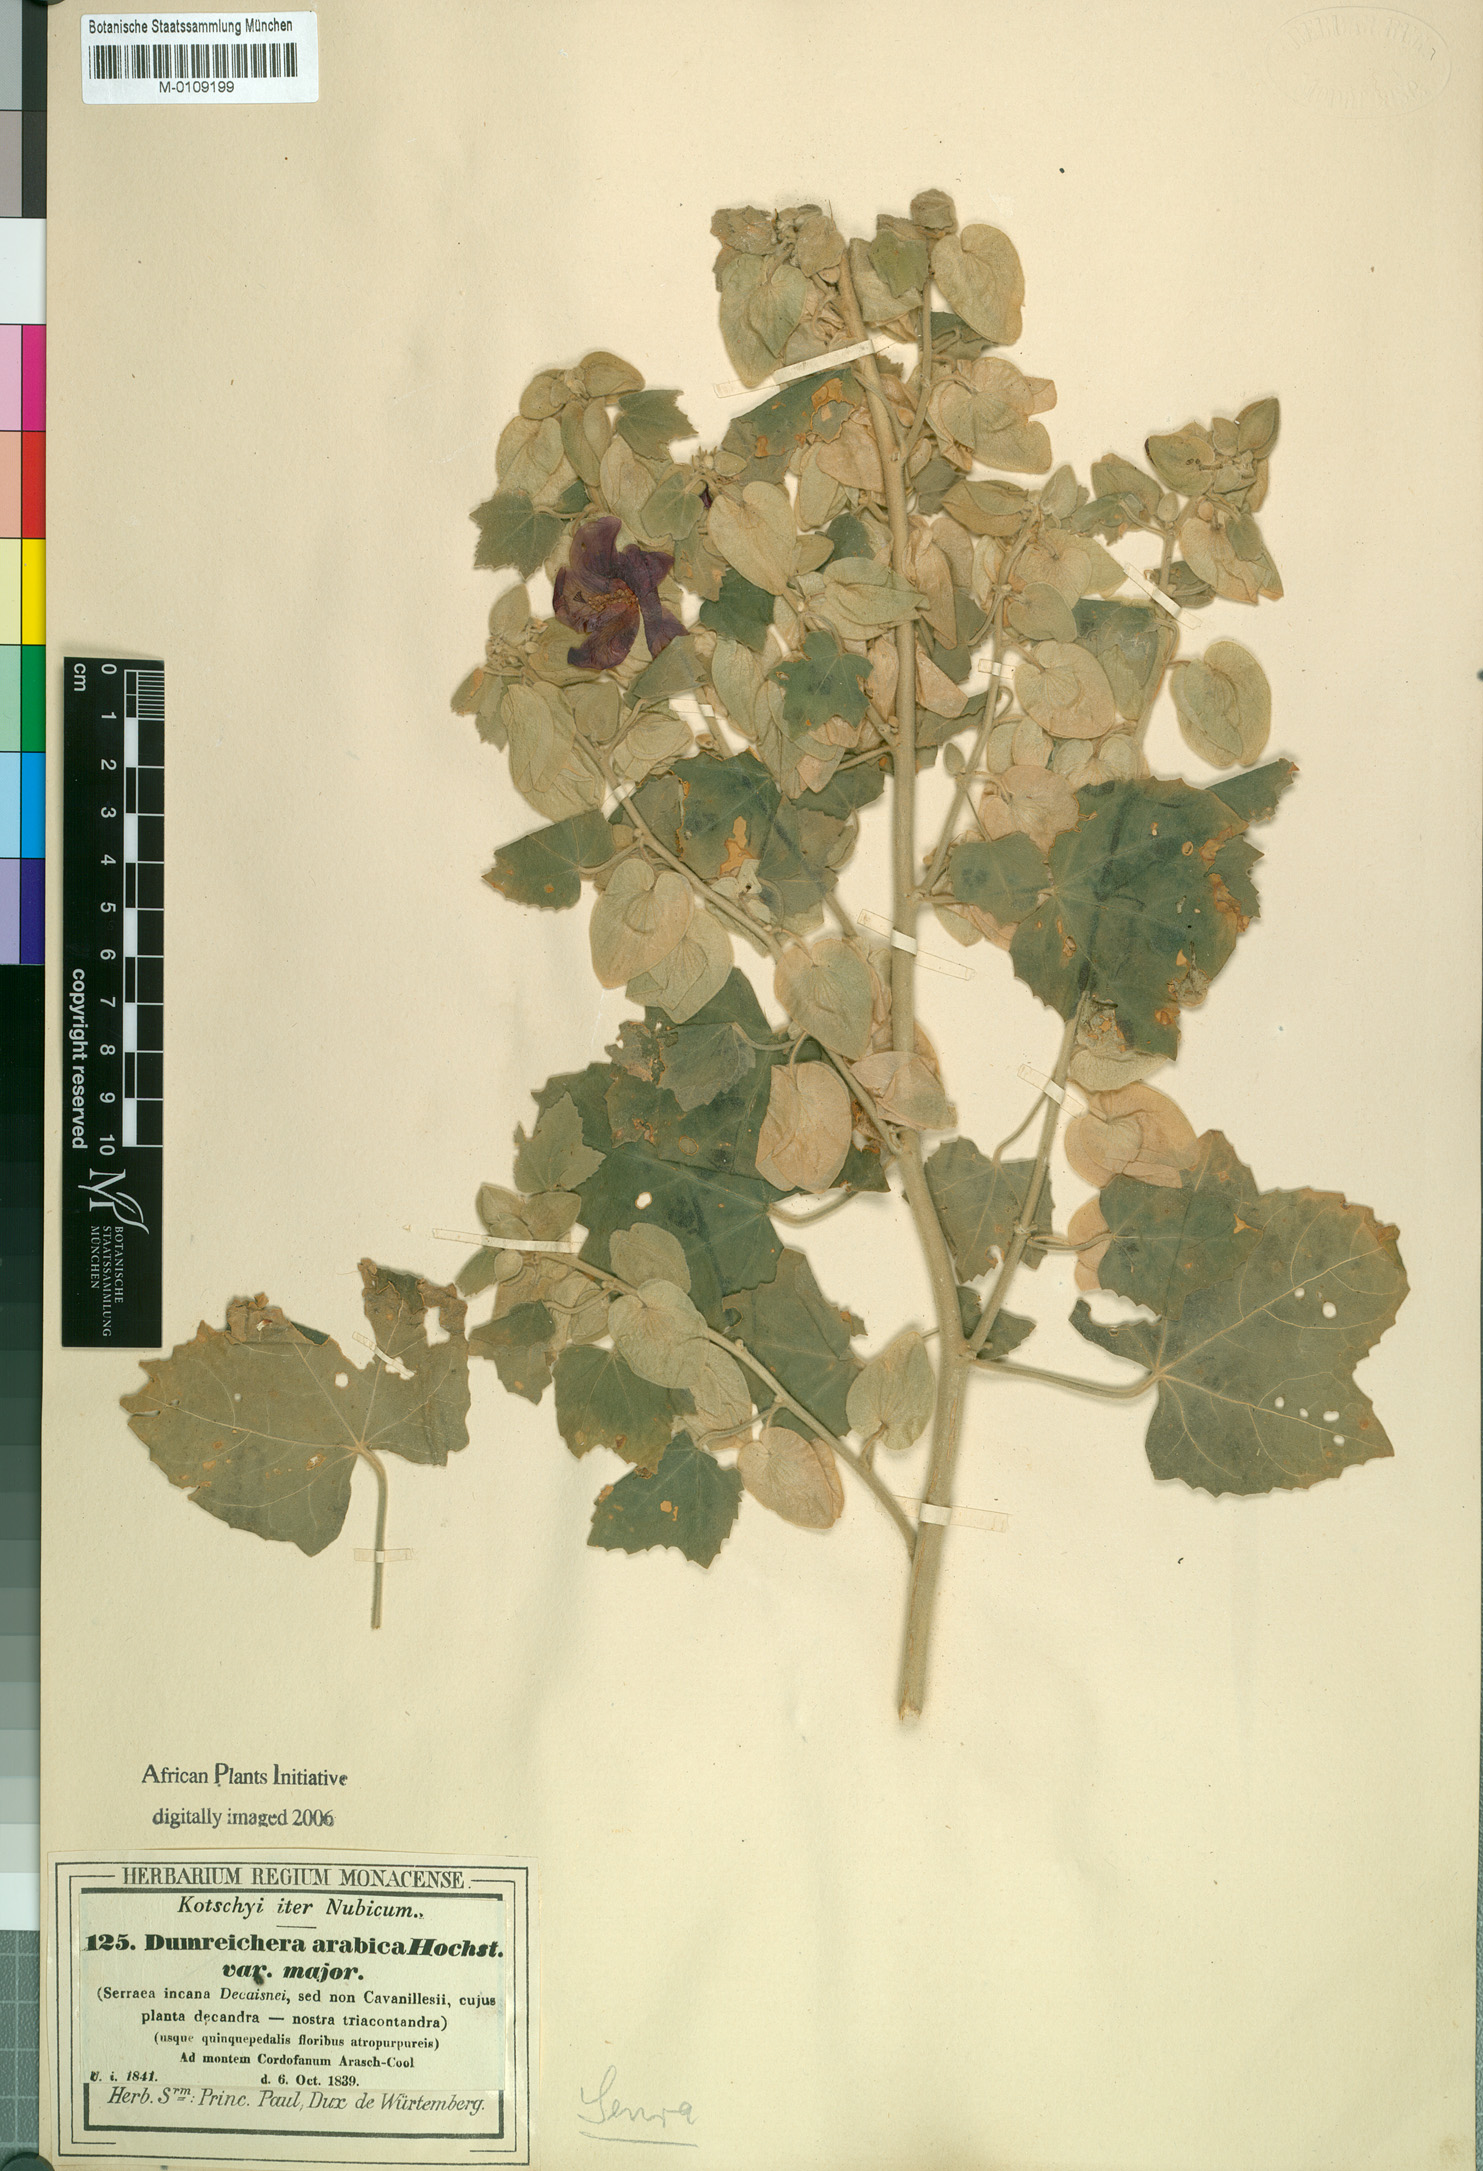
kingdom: Plantae
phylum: Tracheophyta
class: Magnoliopsida
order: Malvales
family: Malvaceae
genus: Senra
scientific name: Senra incana
